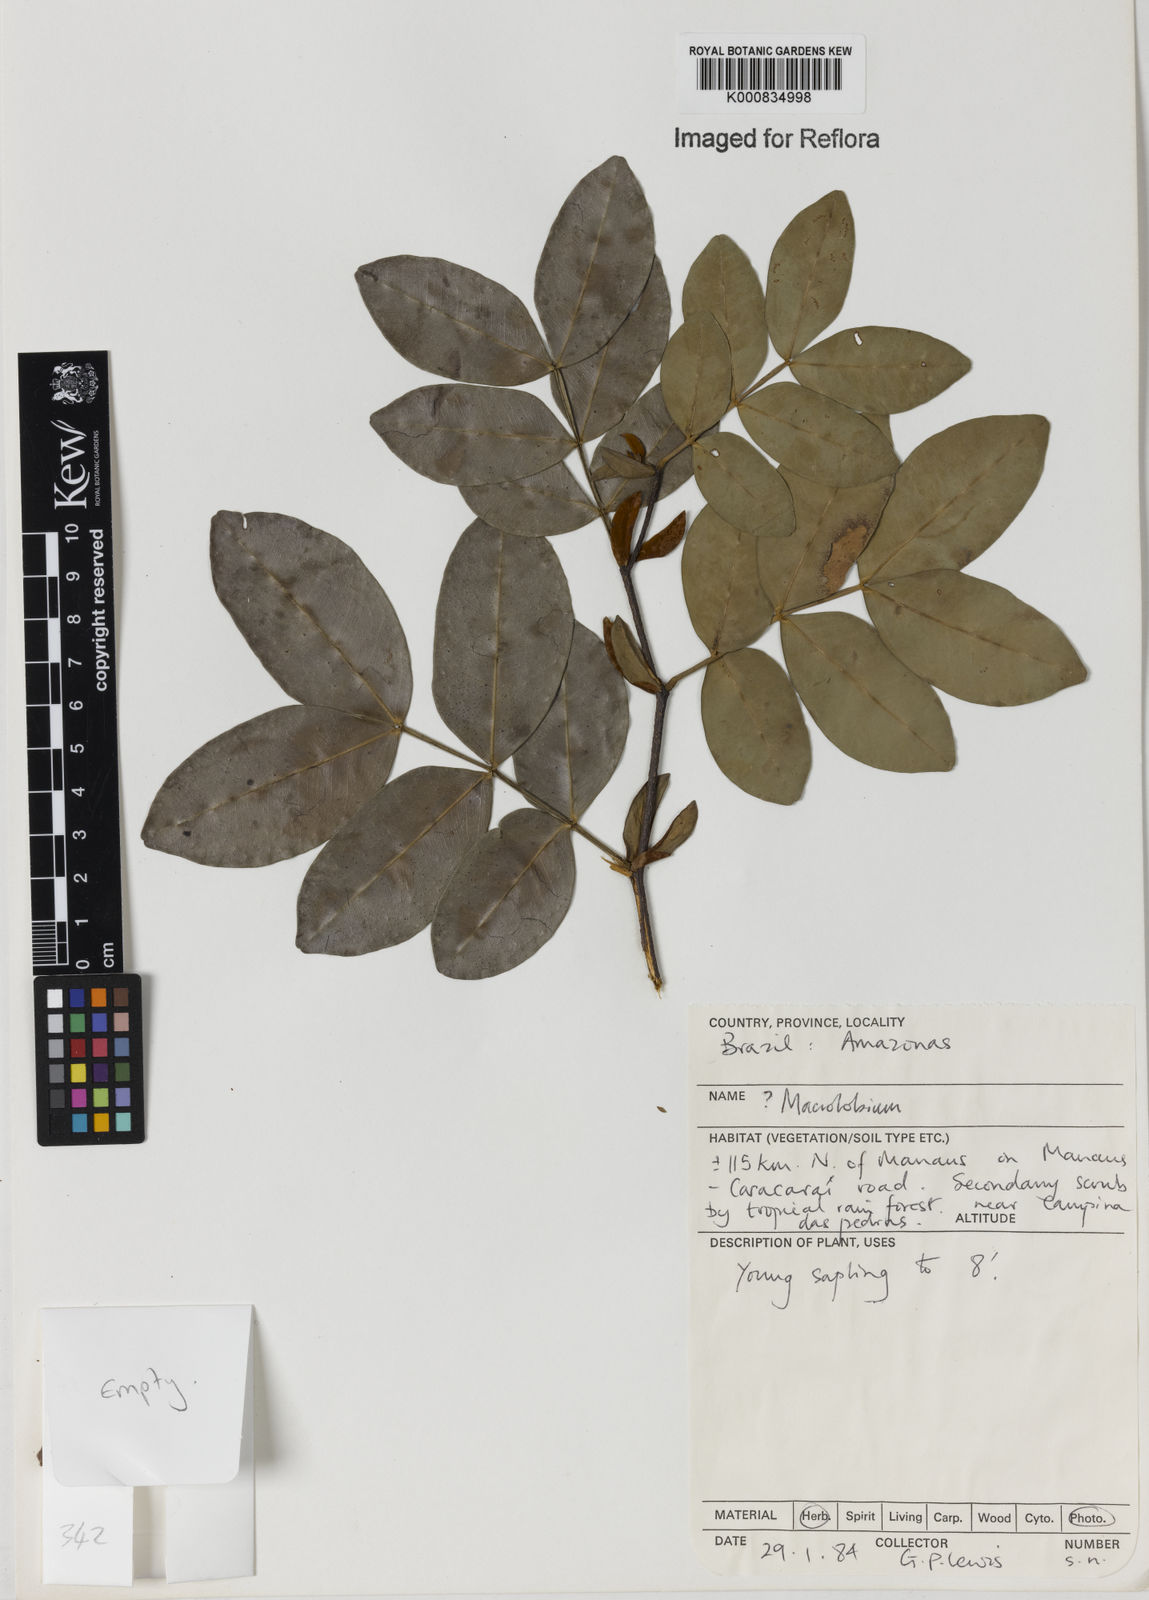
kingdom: Plantae
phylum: Tracheophyta
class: Magnoliopsida
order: Fabales
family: Fabaceae
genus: Macrolobium
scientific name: Macrolobium
